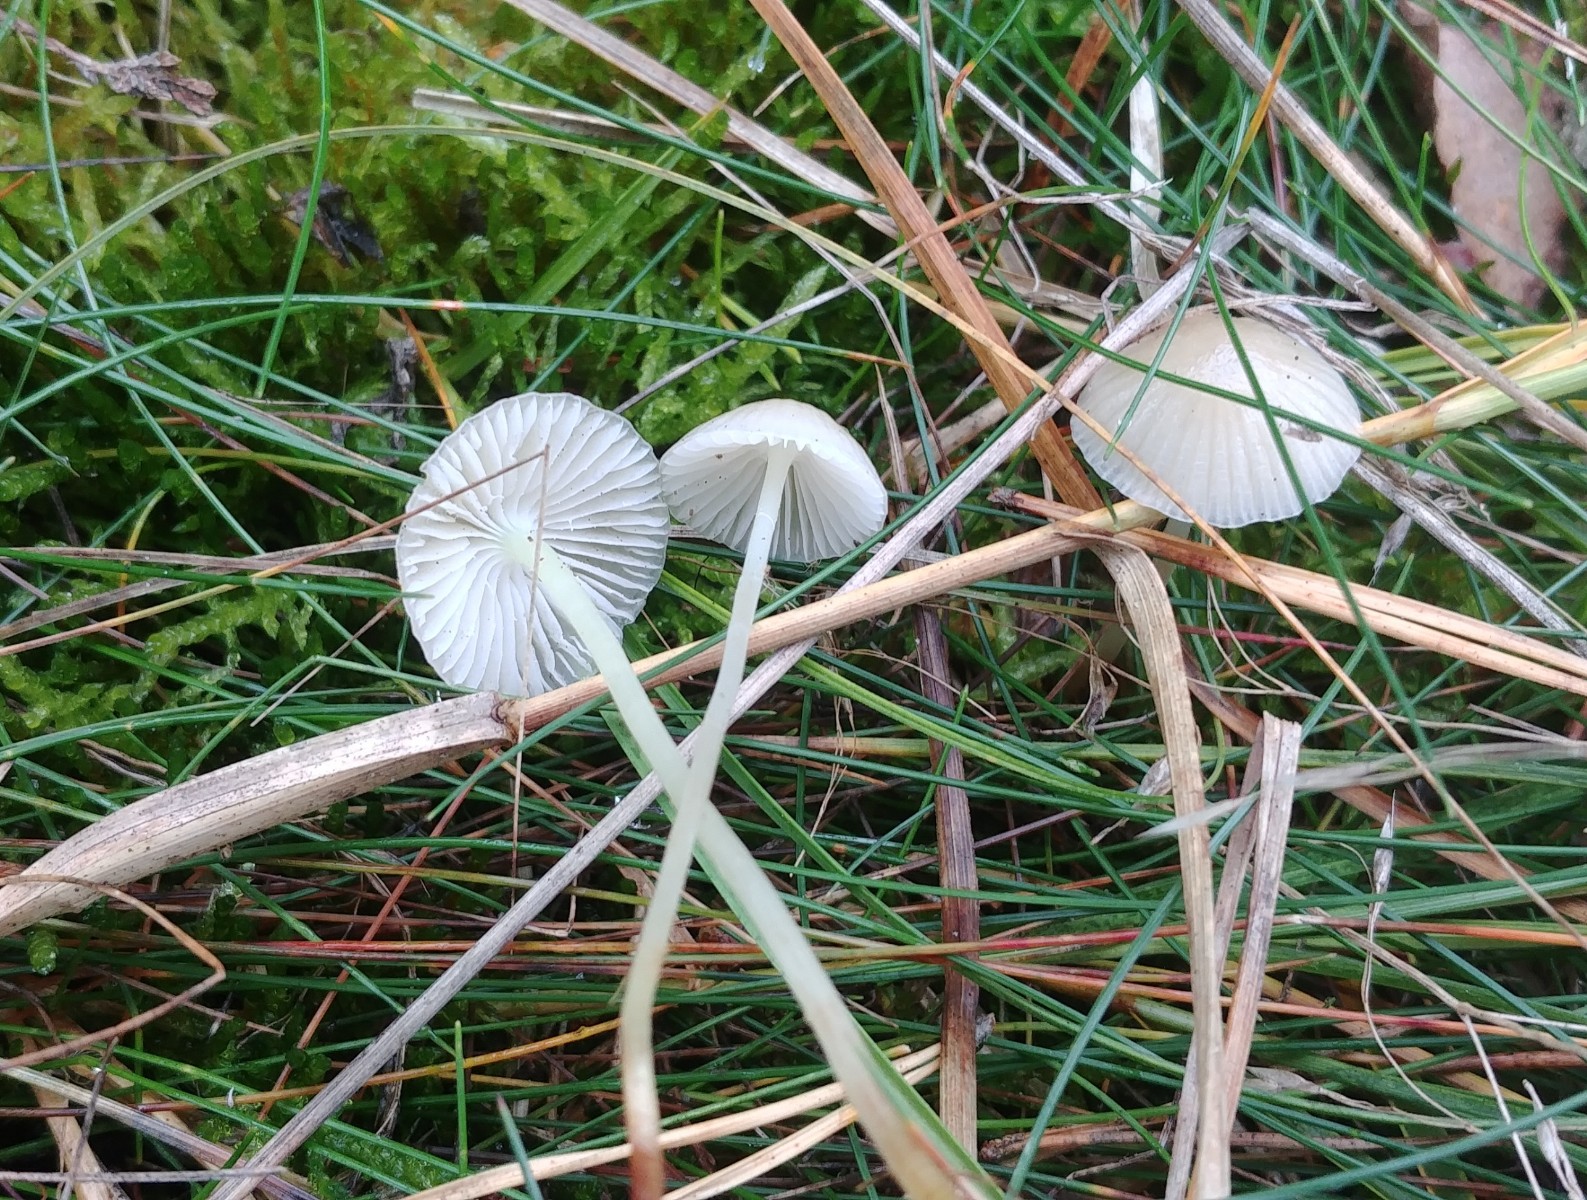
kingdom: Fungi
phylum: Basidiomycota
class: Agaricomycetes
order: Agaricales
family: Mycenaceae
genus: Mycena
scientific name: Mycena epipterygia
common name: gulstokket huesvamp
